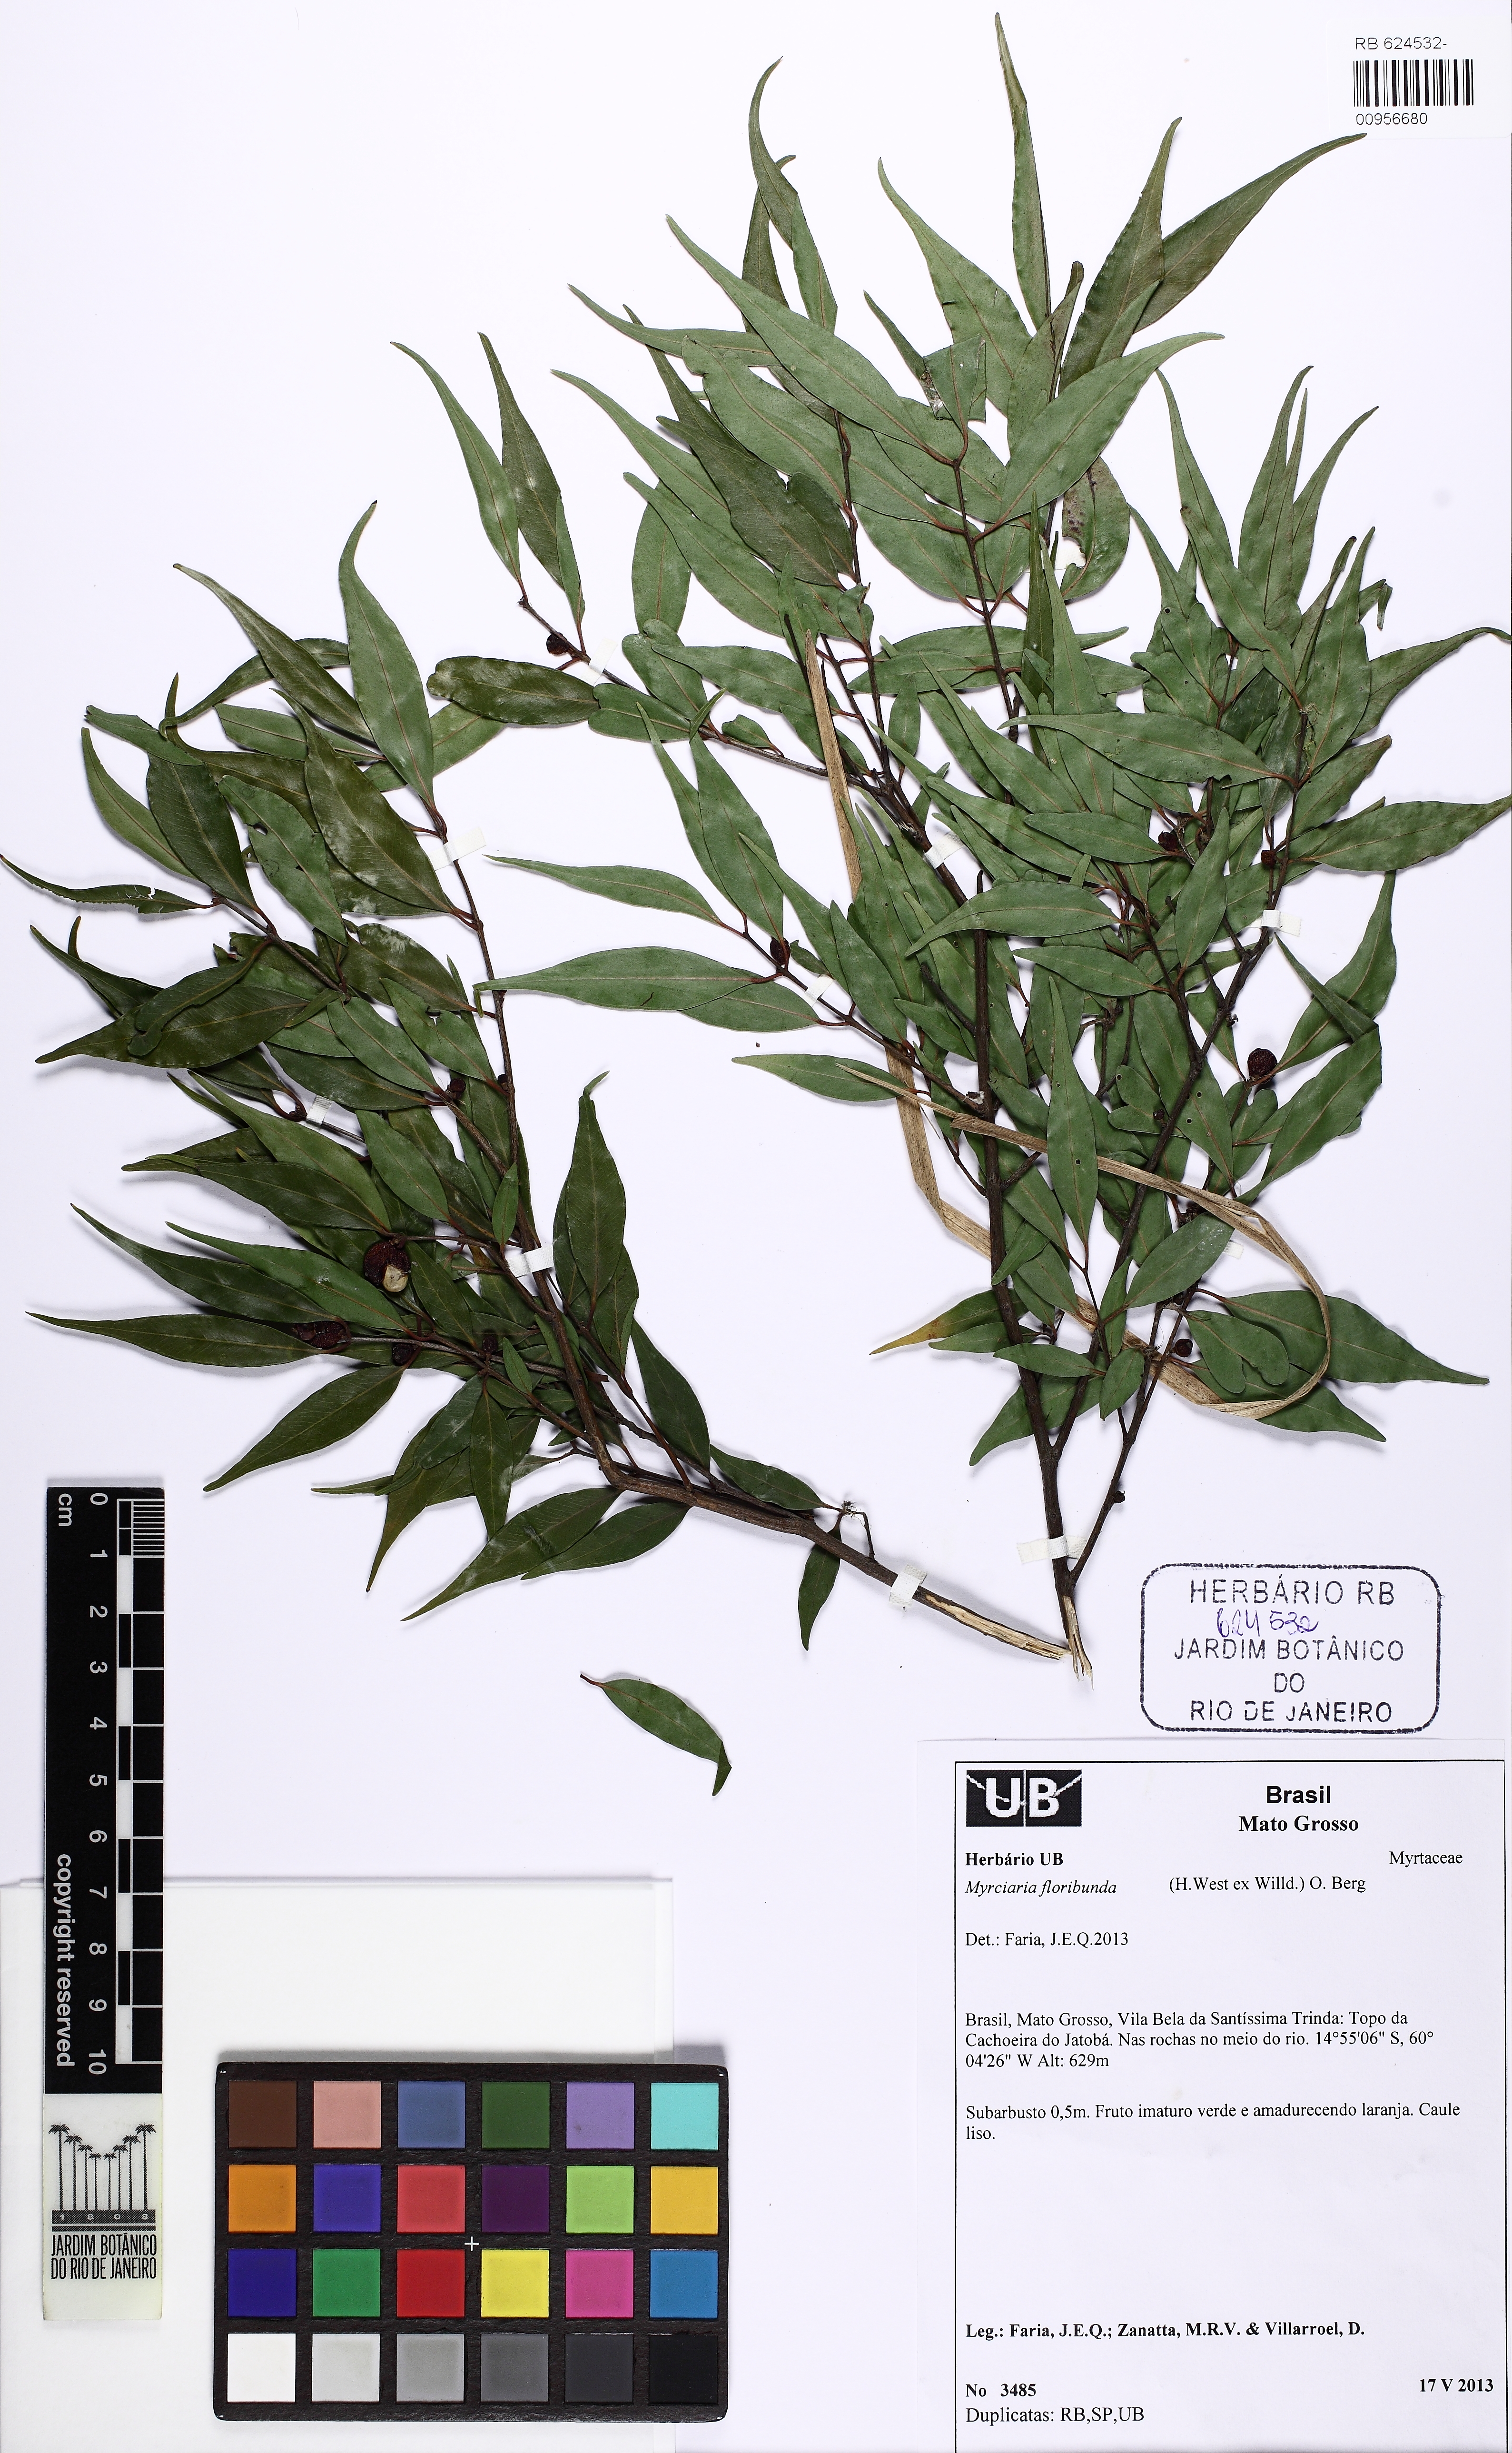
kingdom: Plantae
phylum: Tracheophyta
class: Magnoliopsida
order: Myrtales
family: Myrtaceae
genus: Myrciaria
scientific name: Myrciaria floribunda
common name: Guavaberry
